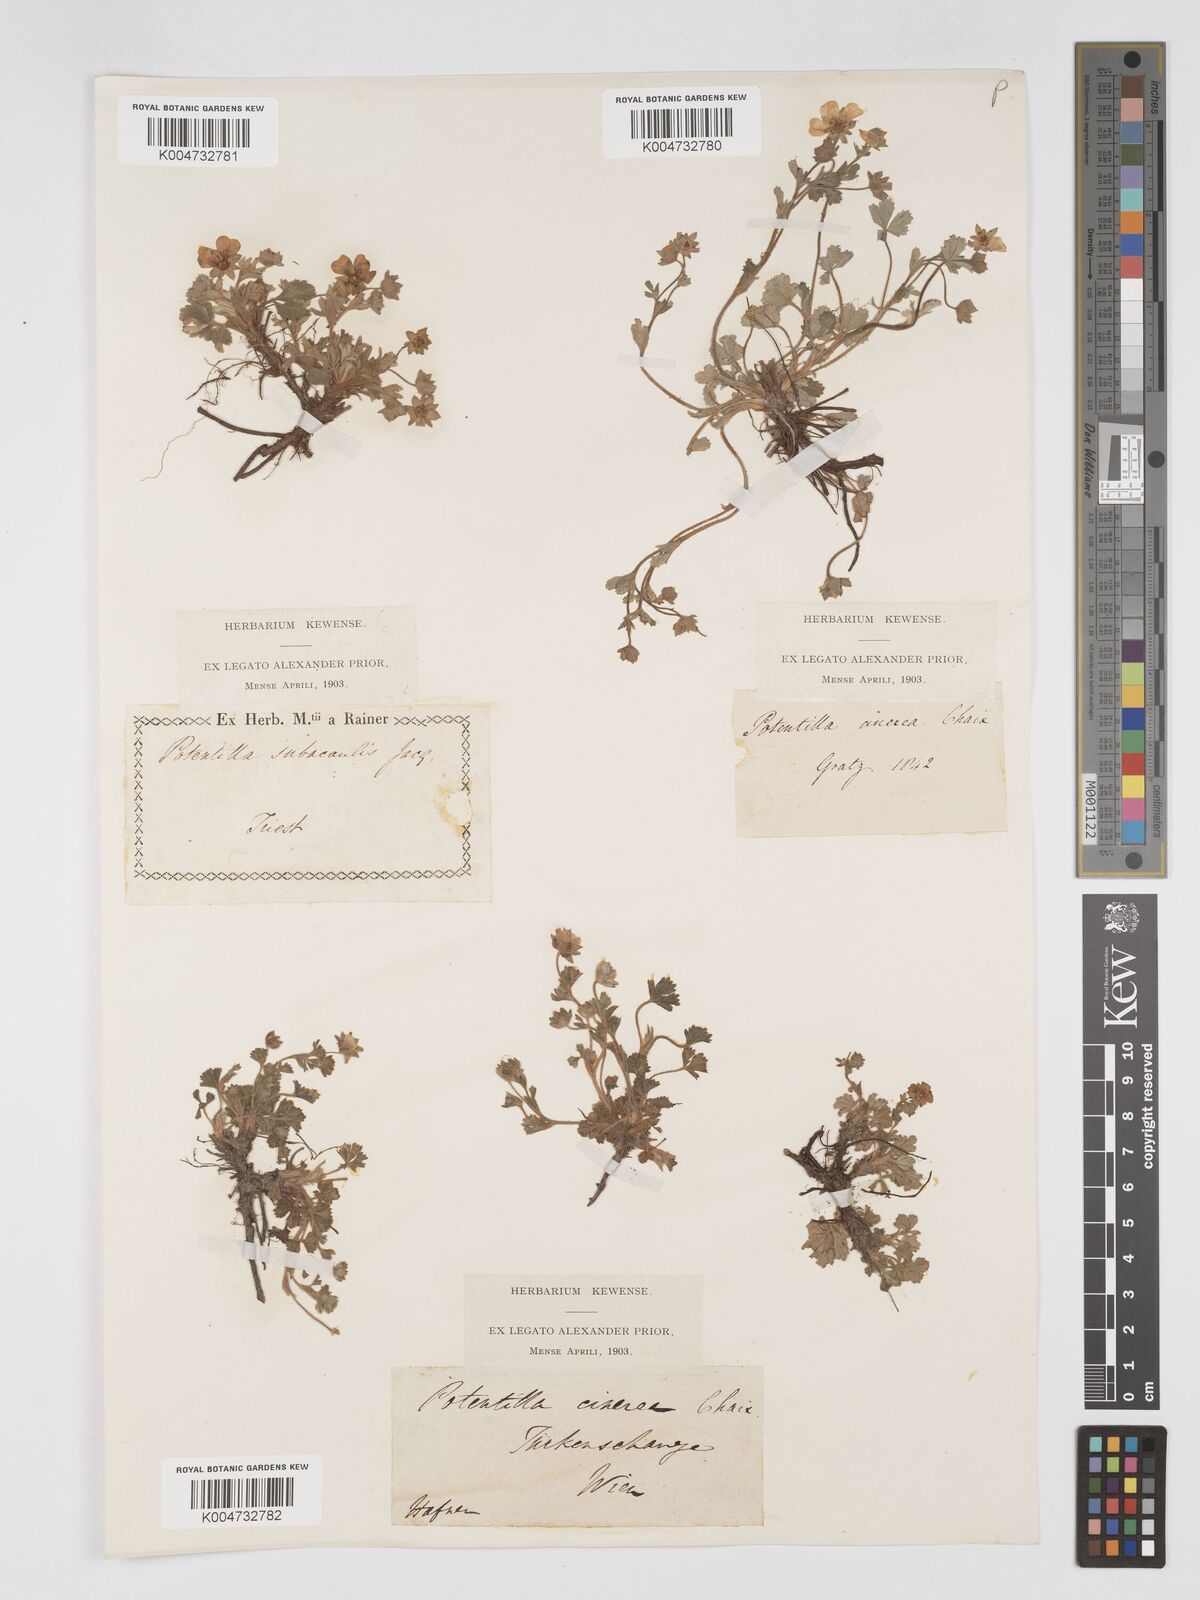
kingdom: Plantae
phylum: Tracheophyta
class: Magnoliopsida
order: Rosales
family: Rosaceae
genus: Potentilla
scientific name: Potentilla
